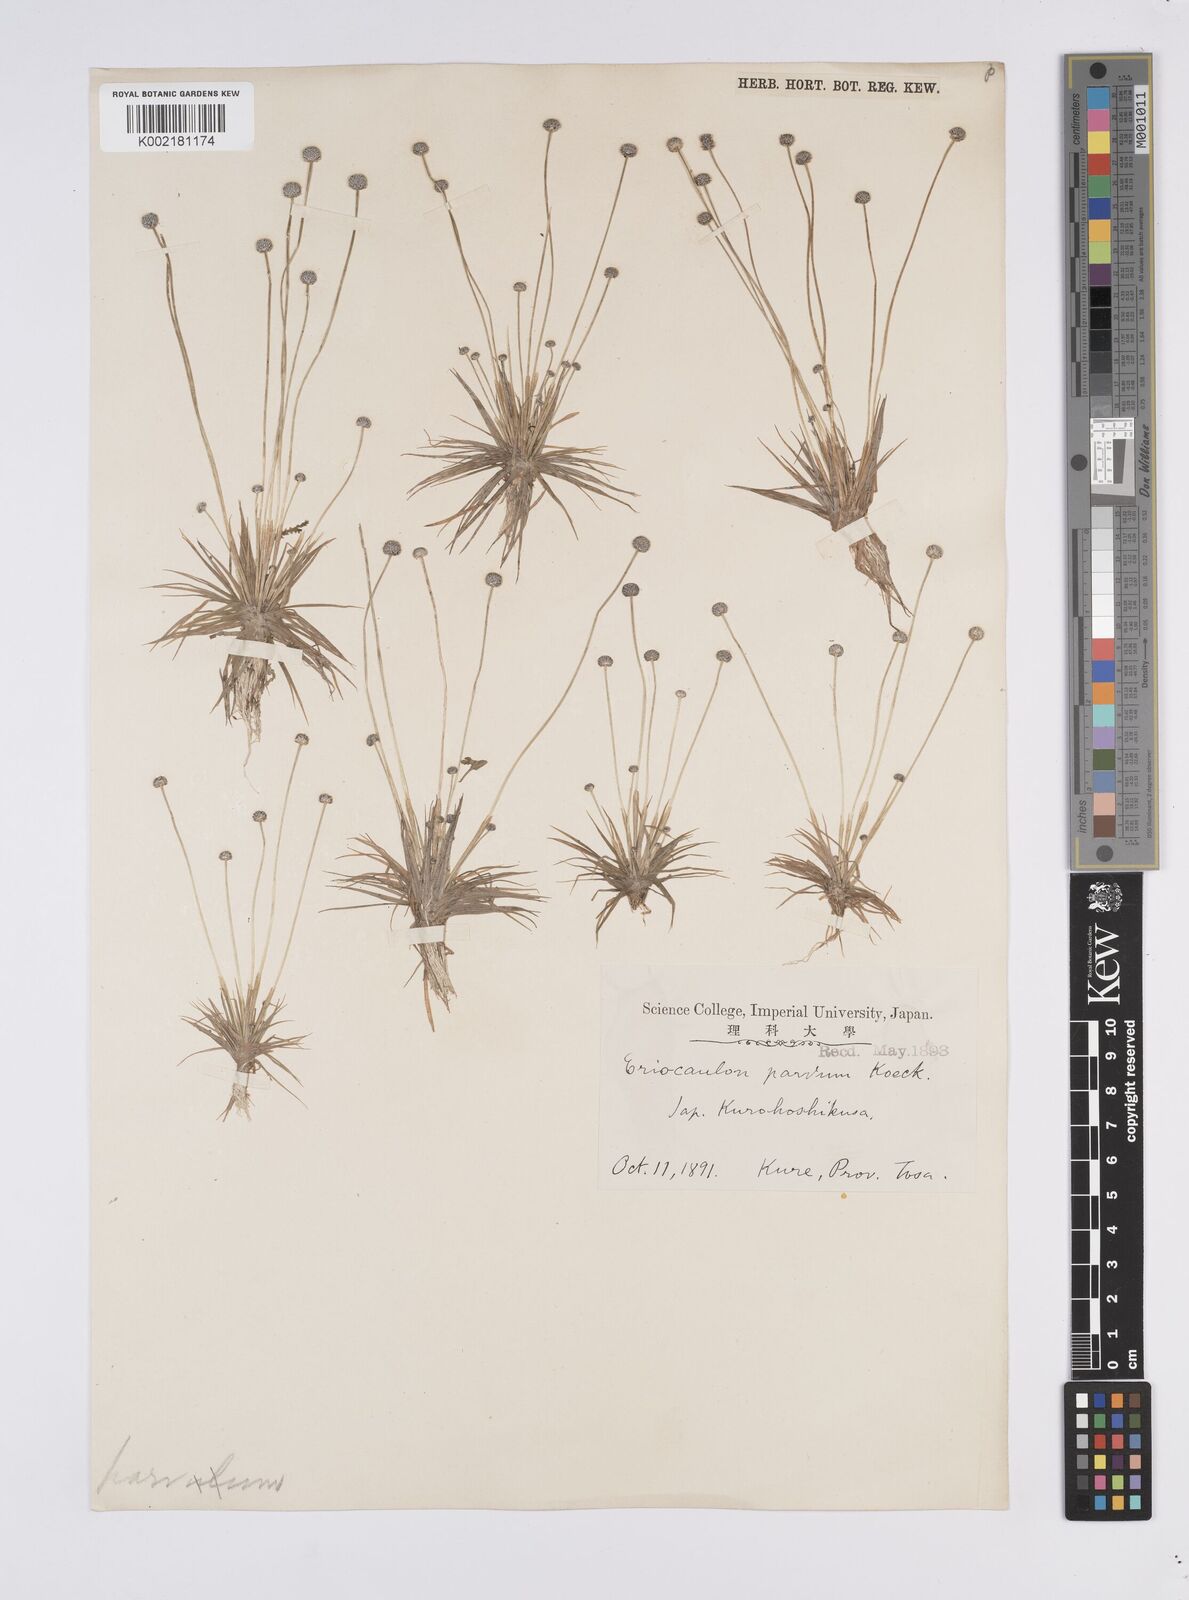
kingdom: Plantae
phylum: Tracheophyta
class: Liliopsida
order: Poales
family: Eriocaulaceae
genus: Eriocaulon
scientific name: Eriocaulon parvum
